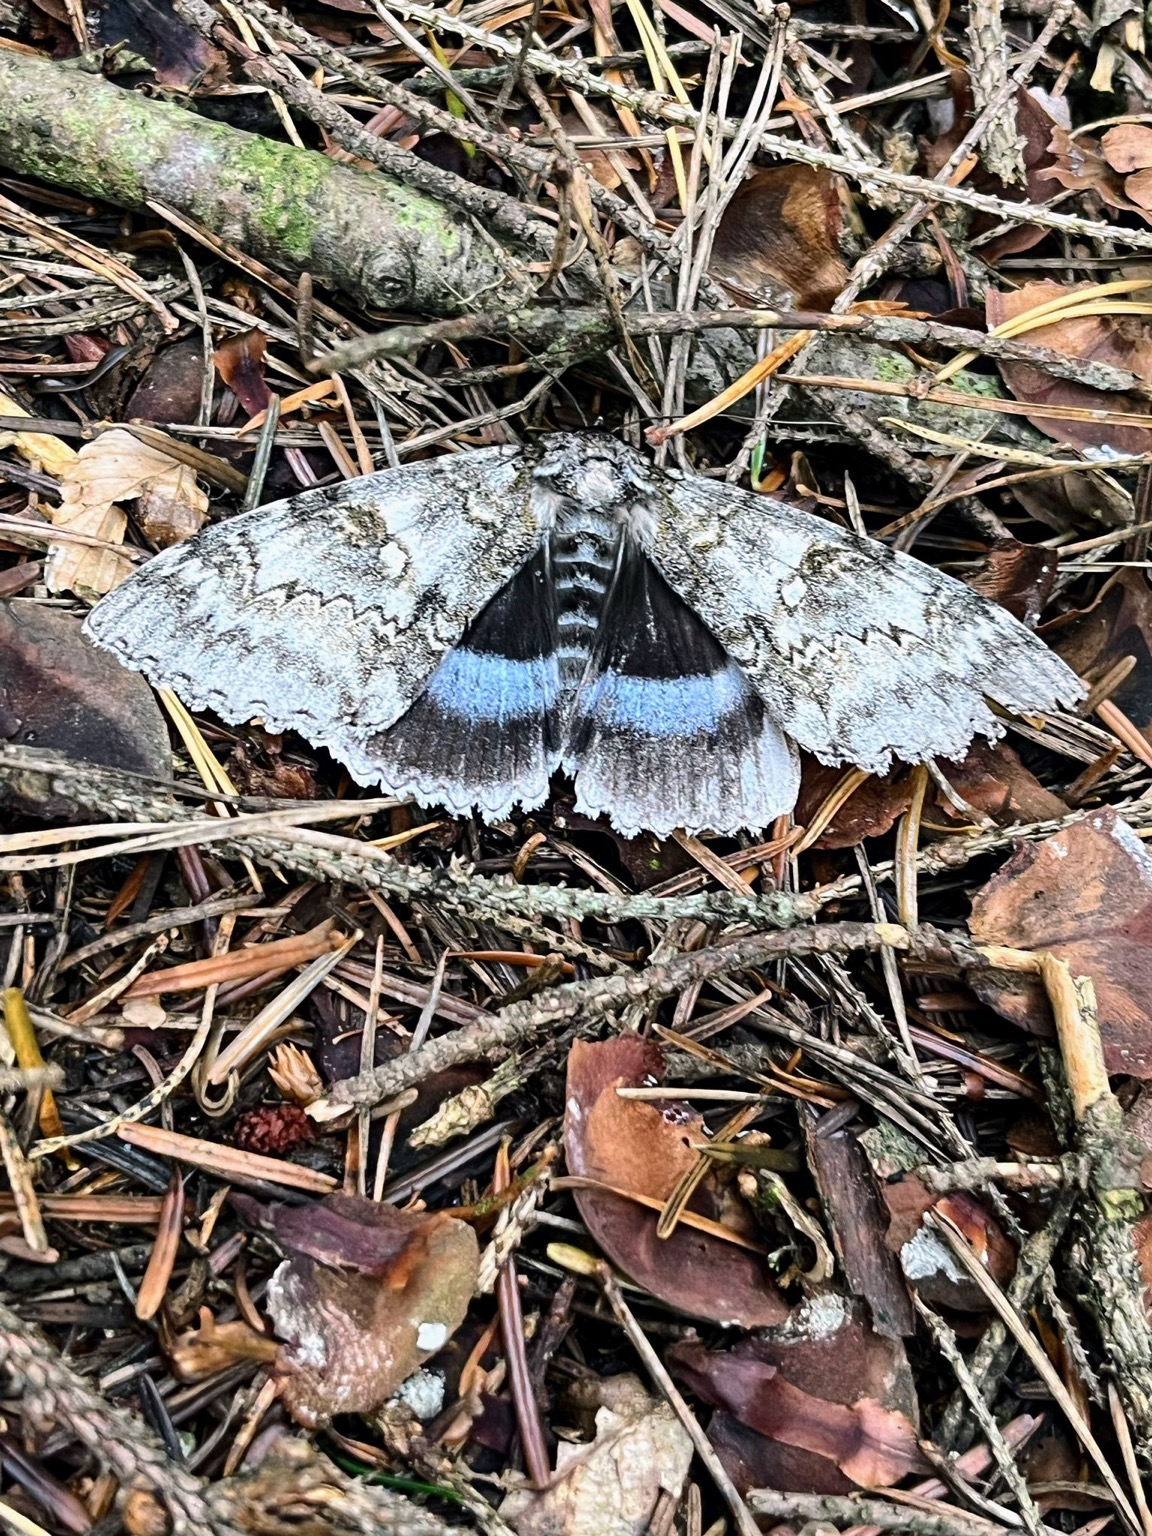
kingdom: Animalia
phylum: Arthropoda
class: Insecta
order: Lepidoptera
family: Erebidae
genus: Catocala
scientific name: Catocala fraxini
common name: Blåt ordensbånd
